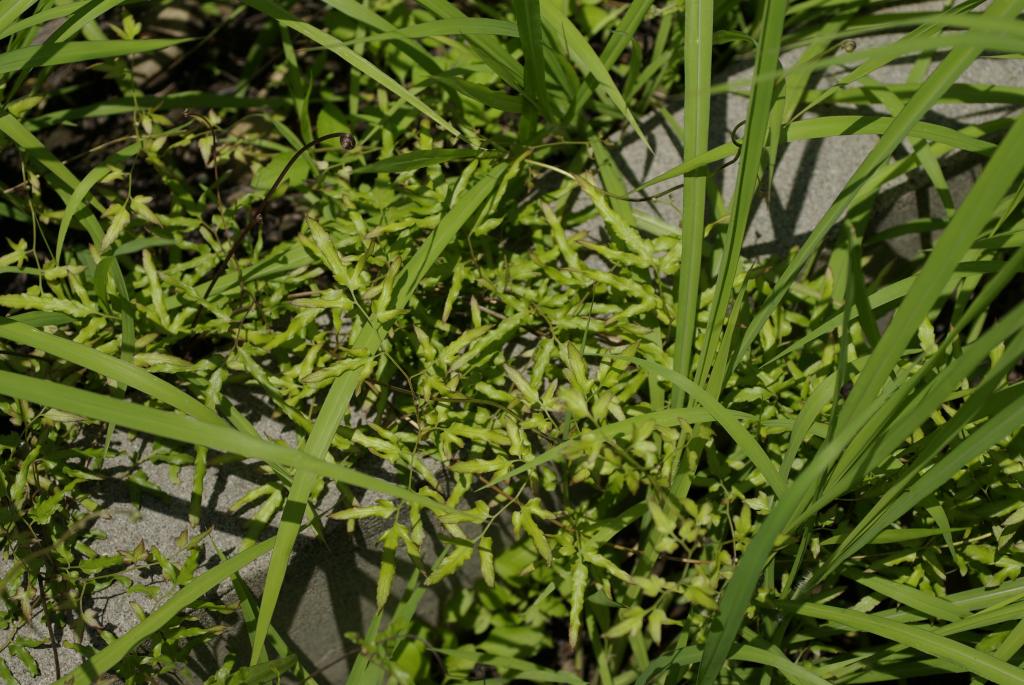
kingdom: Plantae
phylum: Tracheophyta
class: Polypodiopsida
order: Schizaeales
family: Lygodiaceae
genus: Lygodium
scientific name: Lygodium japonicum
